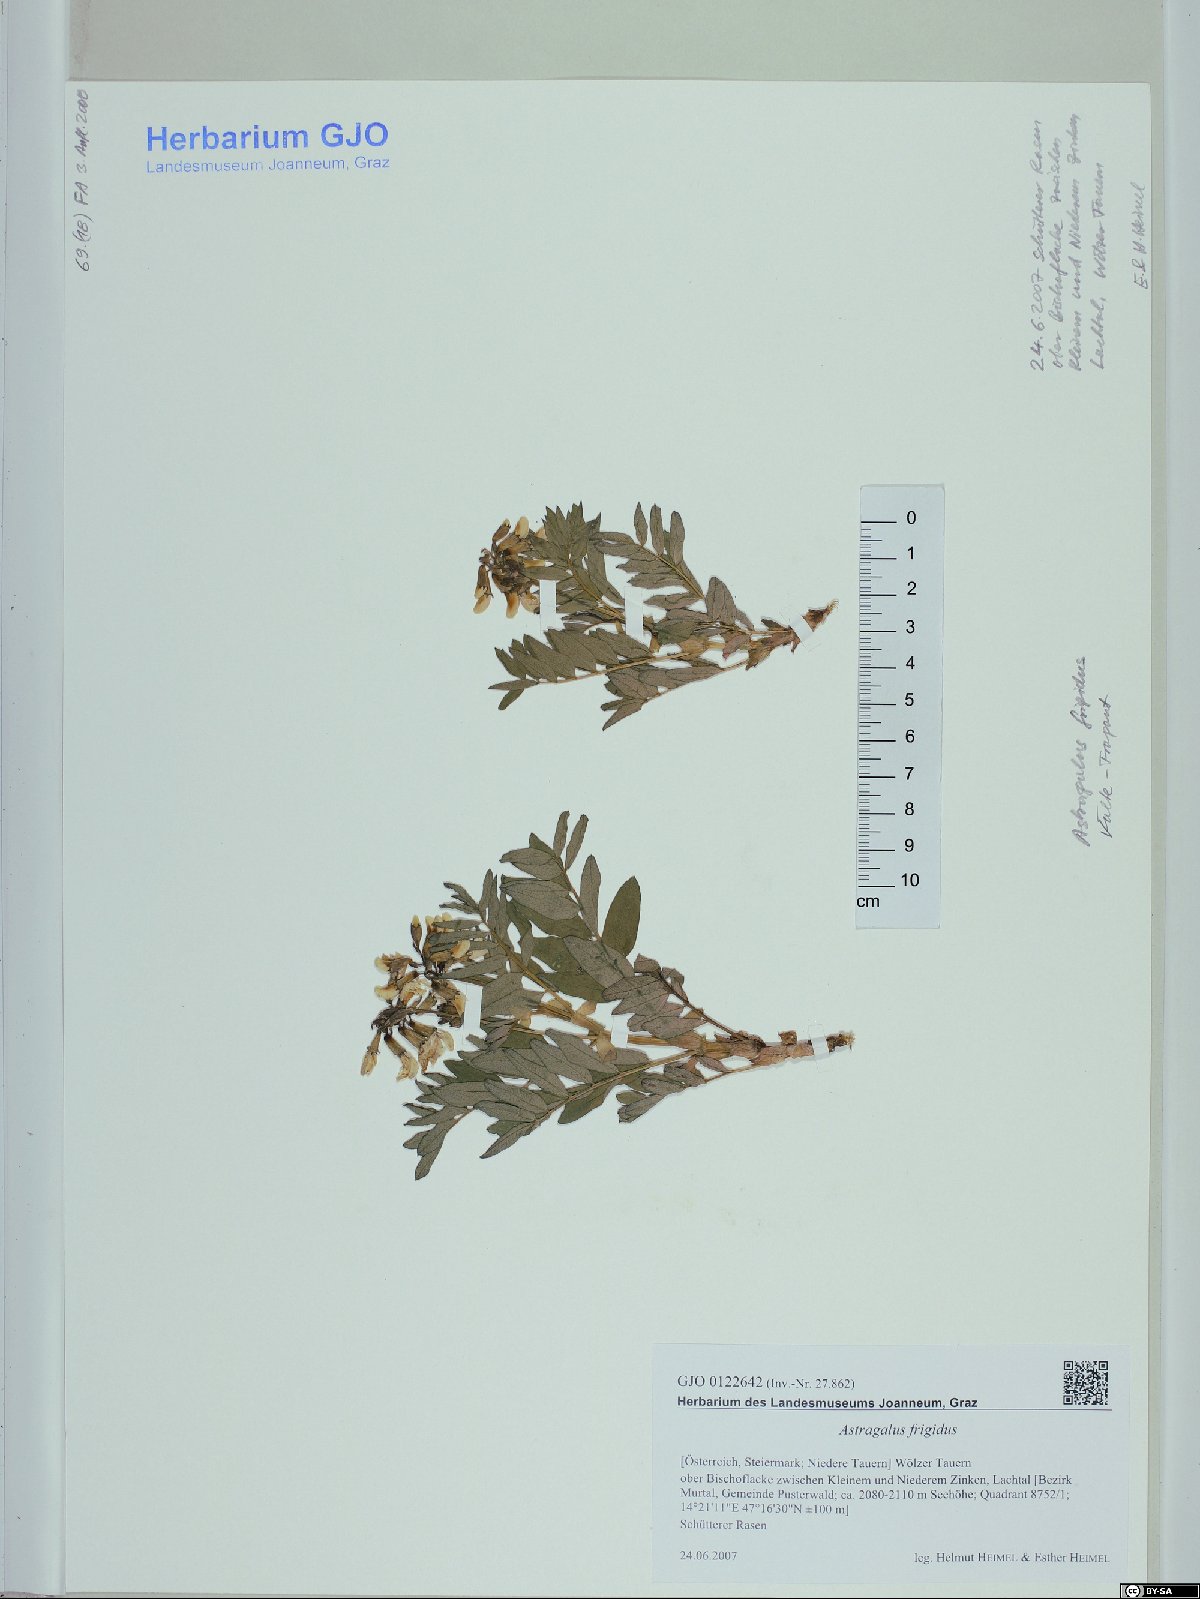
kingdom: Plantae
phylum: Tracheophyta
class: Magnoliopsida
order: Fabales
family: Fabaceae
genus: Astragalus
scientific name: Astragalus frigidus
